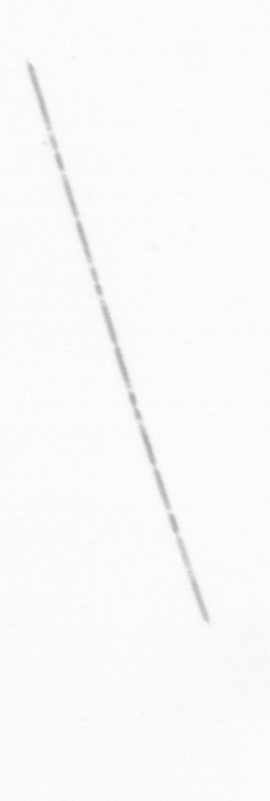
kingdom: Chromista
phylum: Ochrophyta
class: Bacillariophyceae
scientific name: Bacillariophyceae
